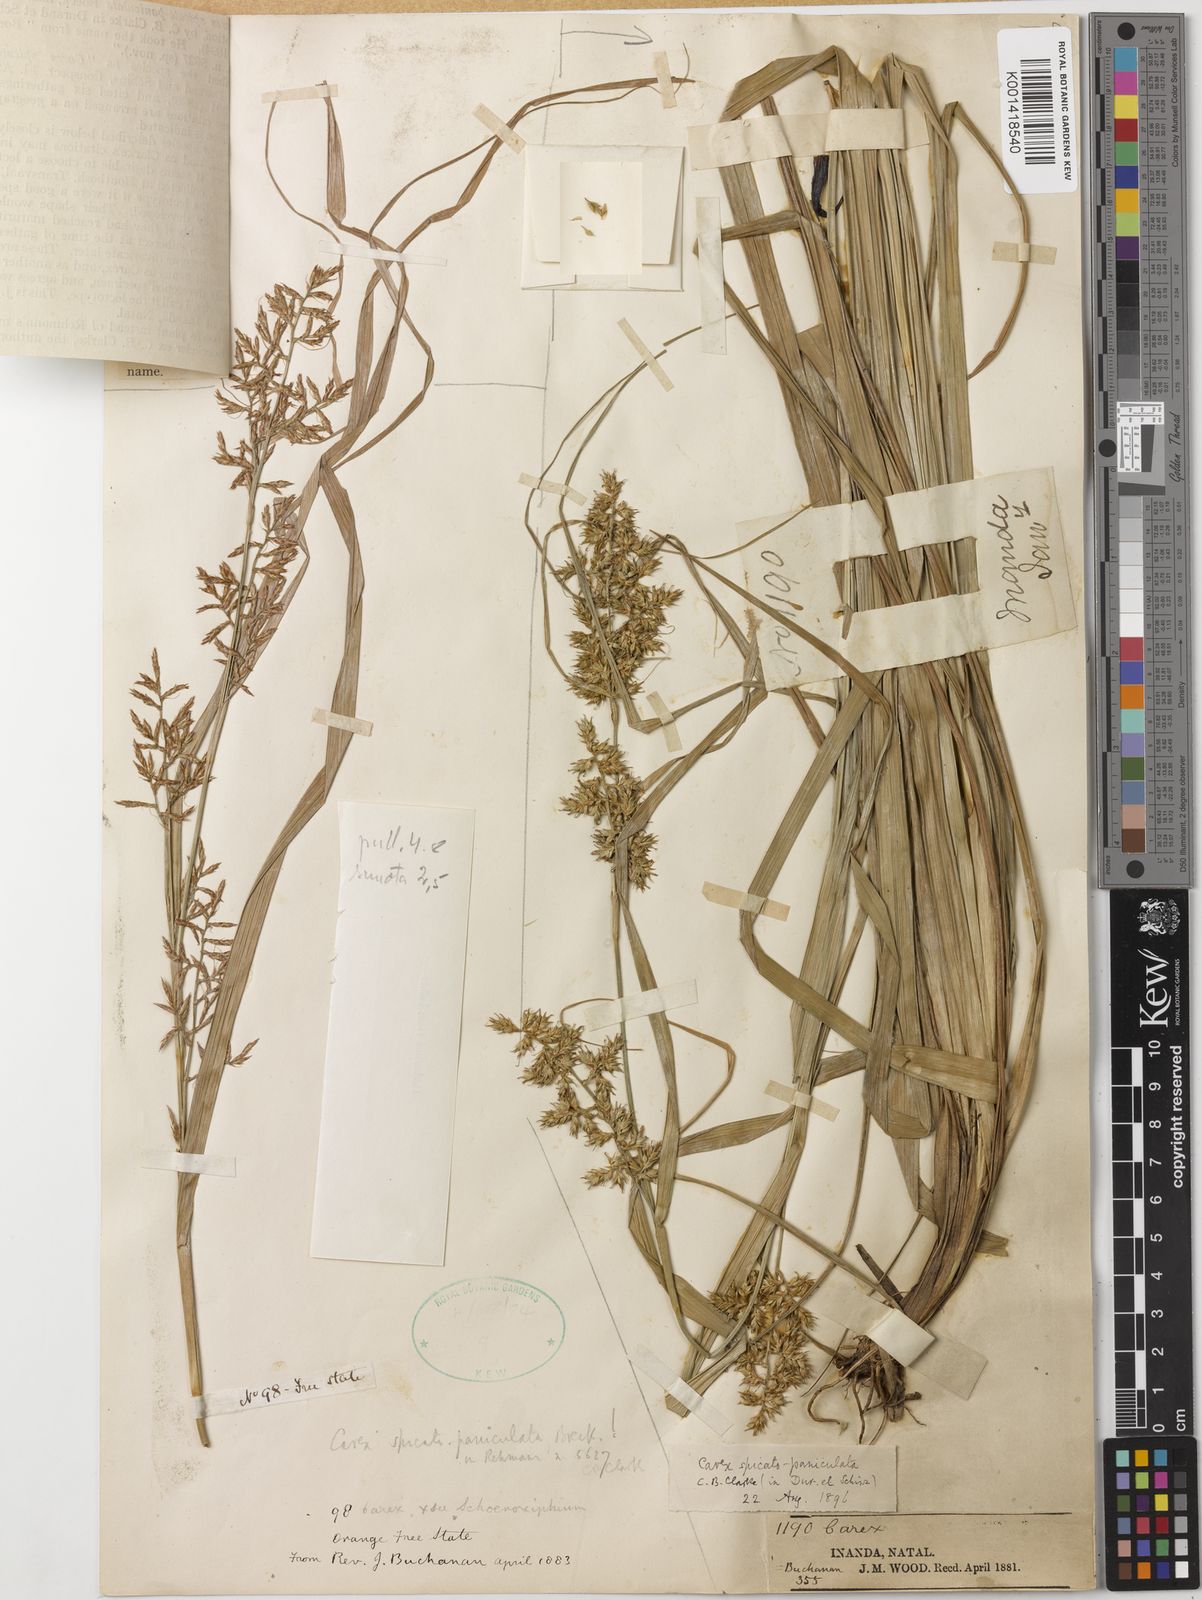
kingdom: Plantae
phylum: Tracheophyta
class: Liliopsida
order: Poales
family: Cyperaceae
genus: Carex
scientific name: Carex spicatopaniculata
